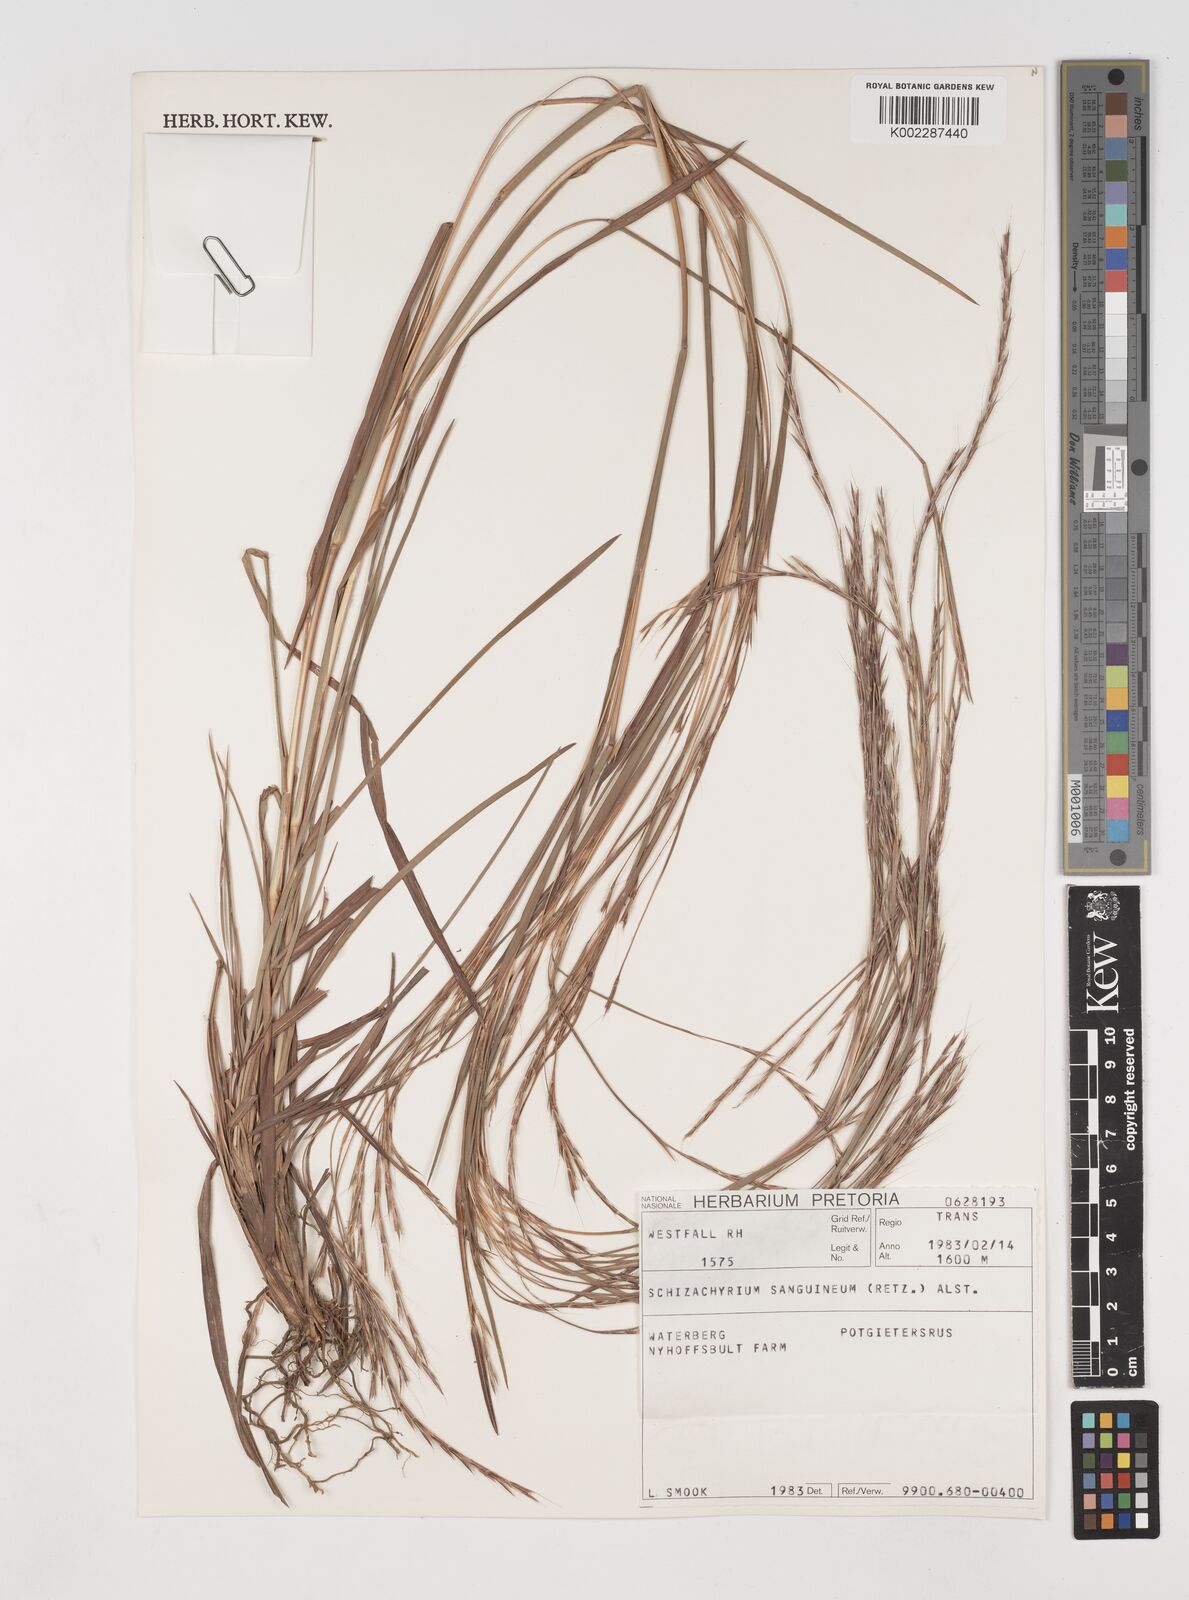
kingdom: Plantae
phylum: Tracheophyta
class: Liliopsida
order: Poales
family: Poaceae
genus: Schizachyrium
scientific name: Schizachyrium sanguineum
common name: Crimson bluestem
